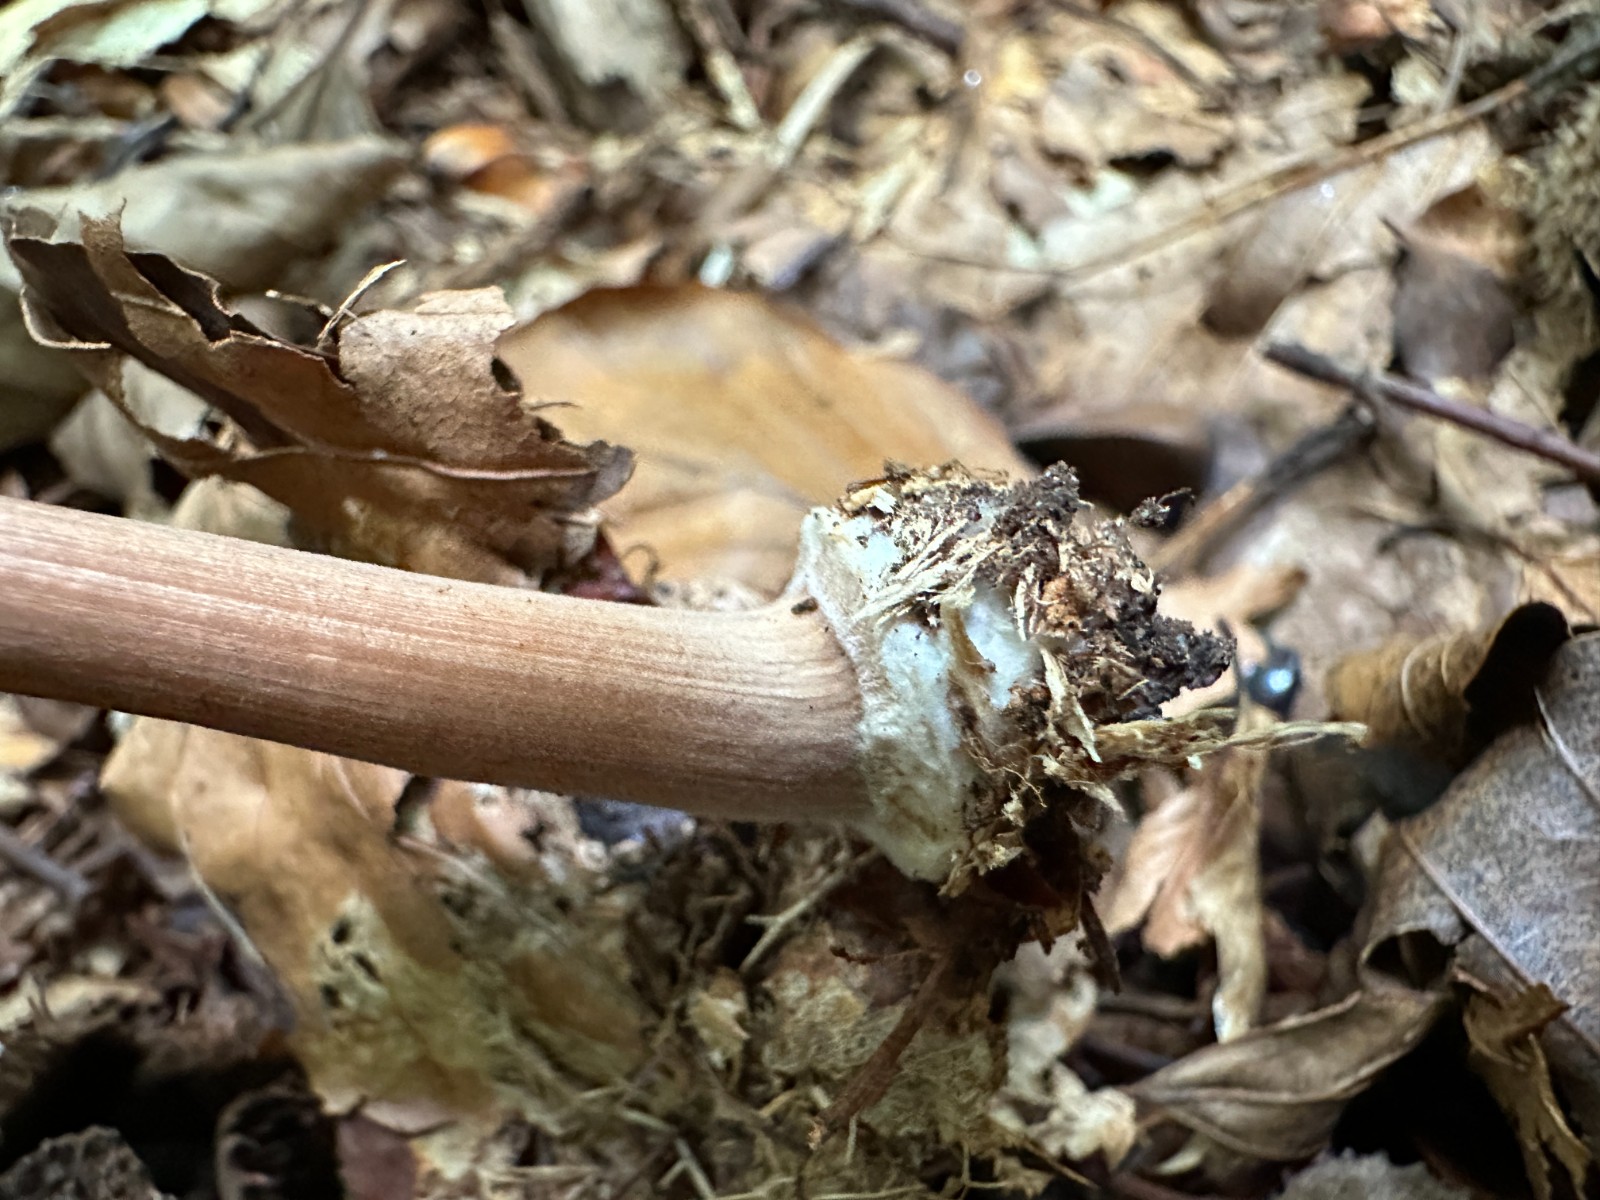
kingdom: Fungi
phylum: Basidiomycota
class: Agaricomycetes
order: Agaricales
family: Inocybaceae
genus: Inocybe
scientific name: Inocybe asterospora
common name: stjernesporet trævlhat
